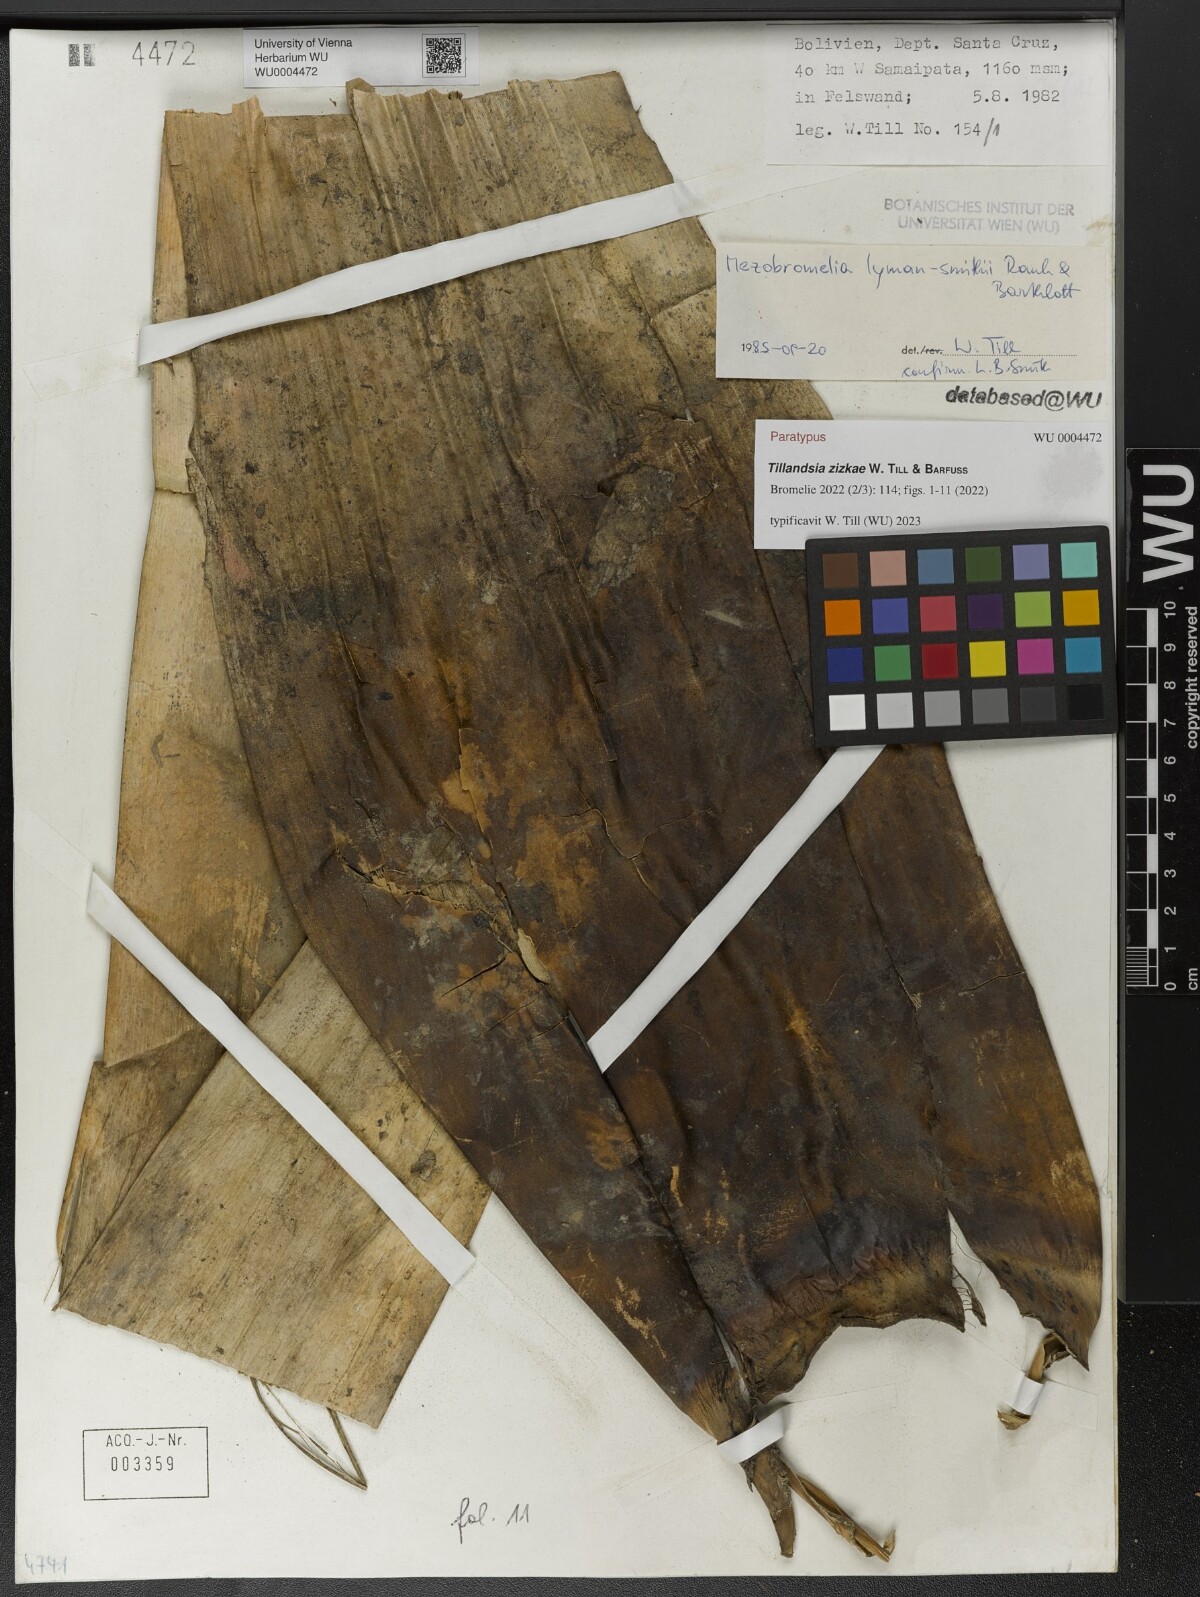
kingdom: Plantae
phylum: Tracheophyta
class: Liliopsida
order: Poales
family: Bromeliaceae
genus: Tillandsia
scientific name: Tillandsia
